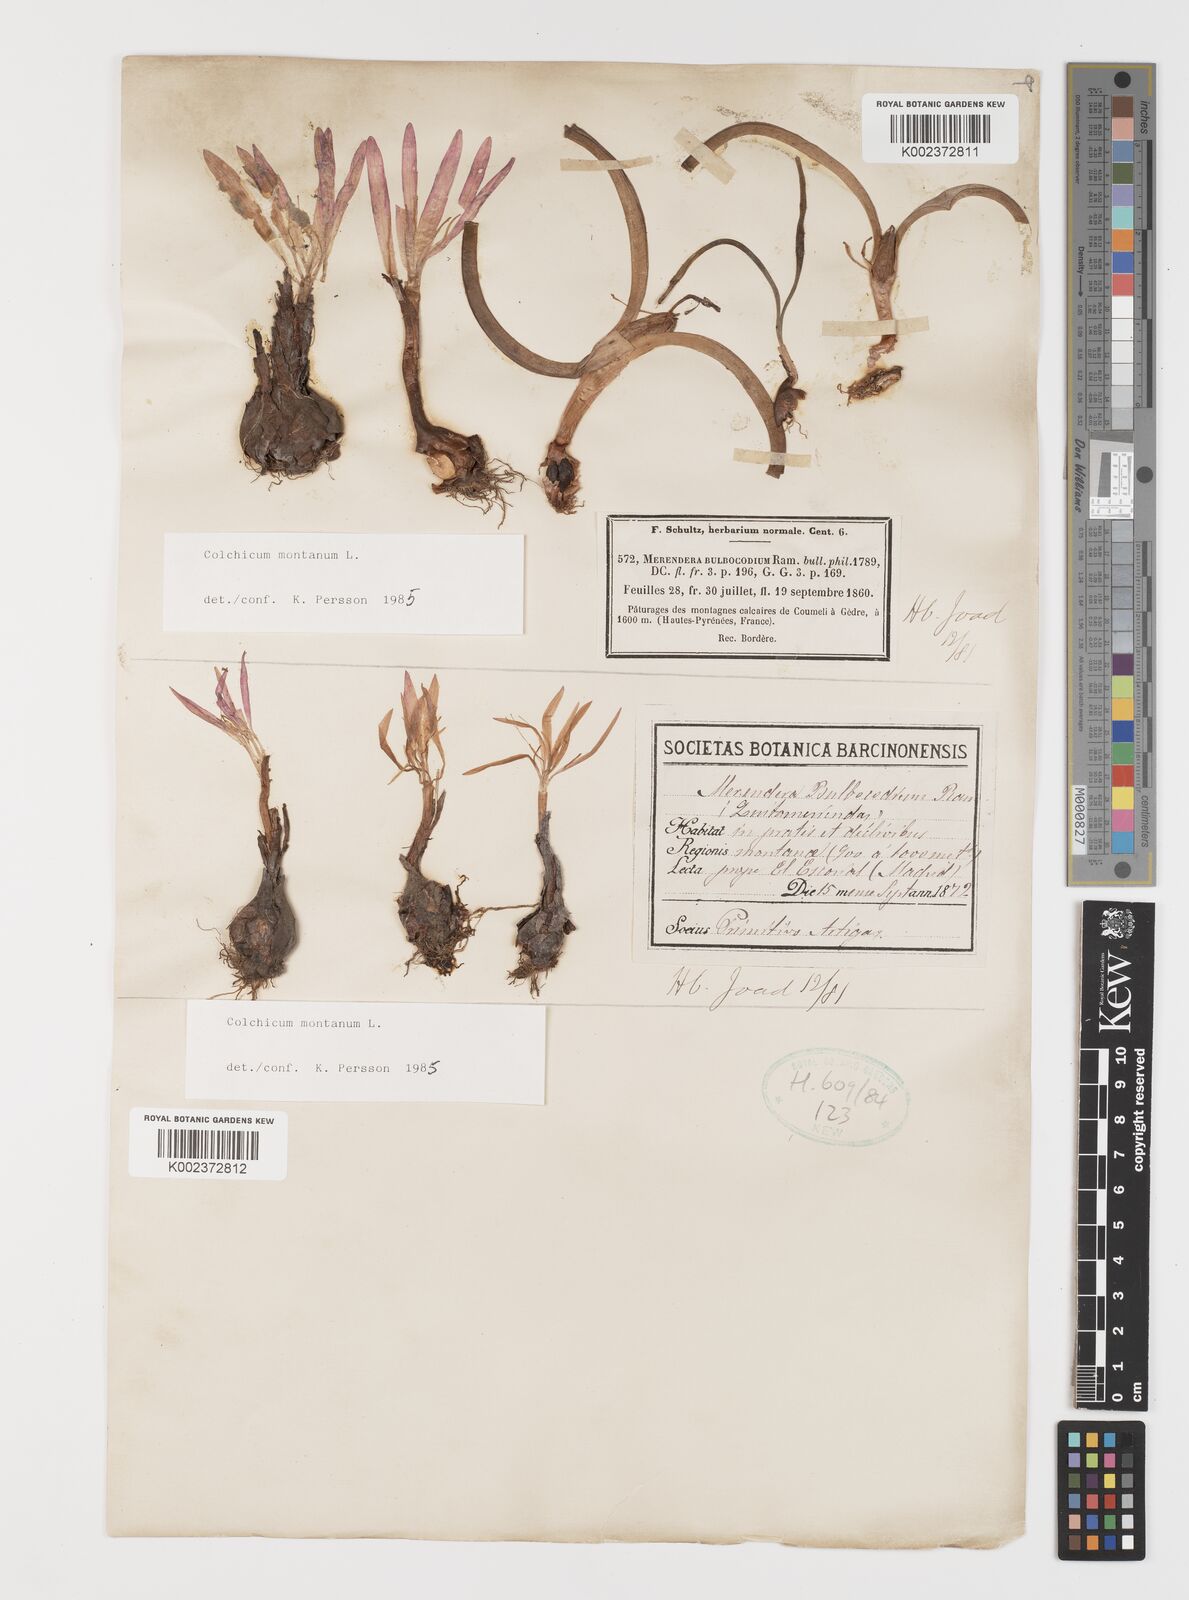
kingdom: Plantae
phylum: Tracheophyta
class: Liliopsida
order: Liliales
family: Colchicaceae
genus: Colchicum
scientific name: Colchicum montanum
